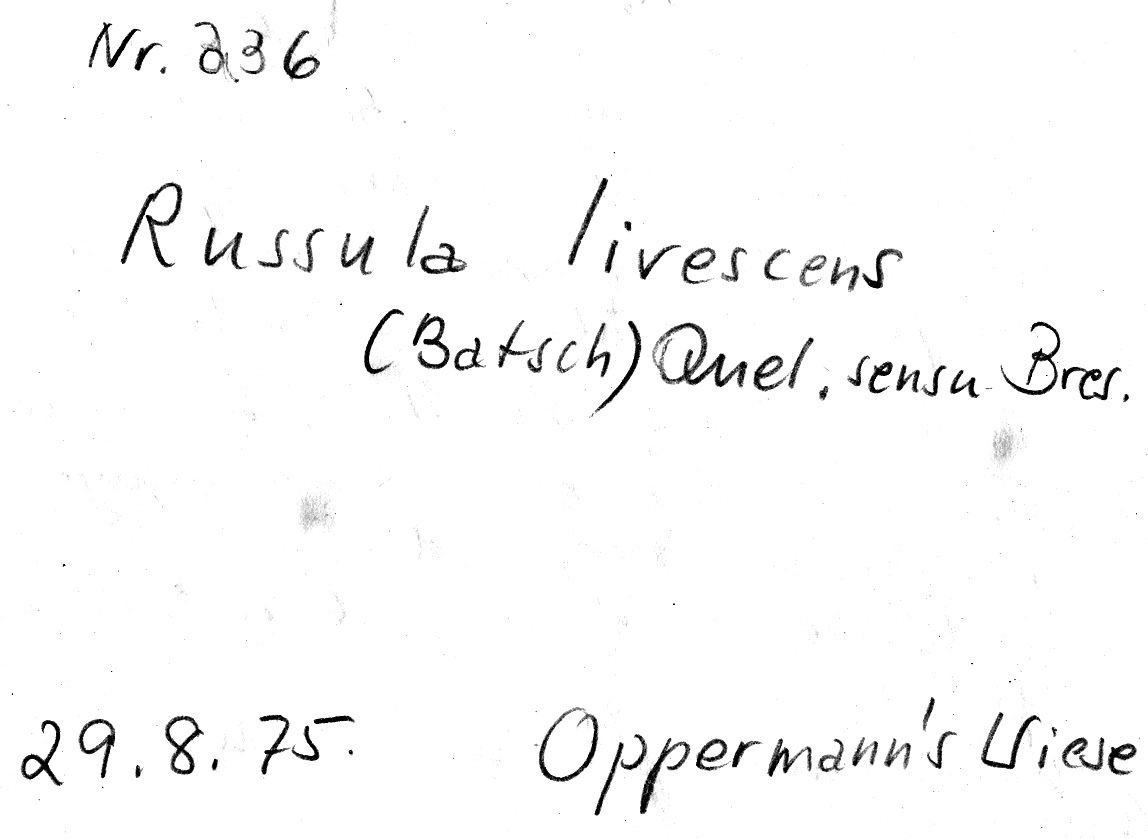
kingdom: Fungi
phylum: Basidiomycota
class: Agaricomycetes
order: Russulales
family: Russulaceae
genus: Russula
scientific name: Russula livescens
